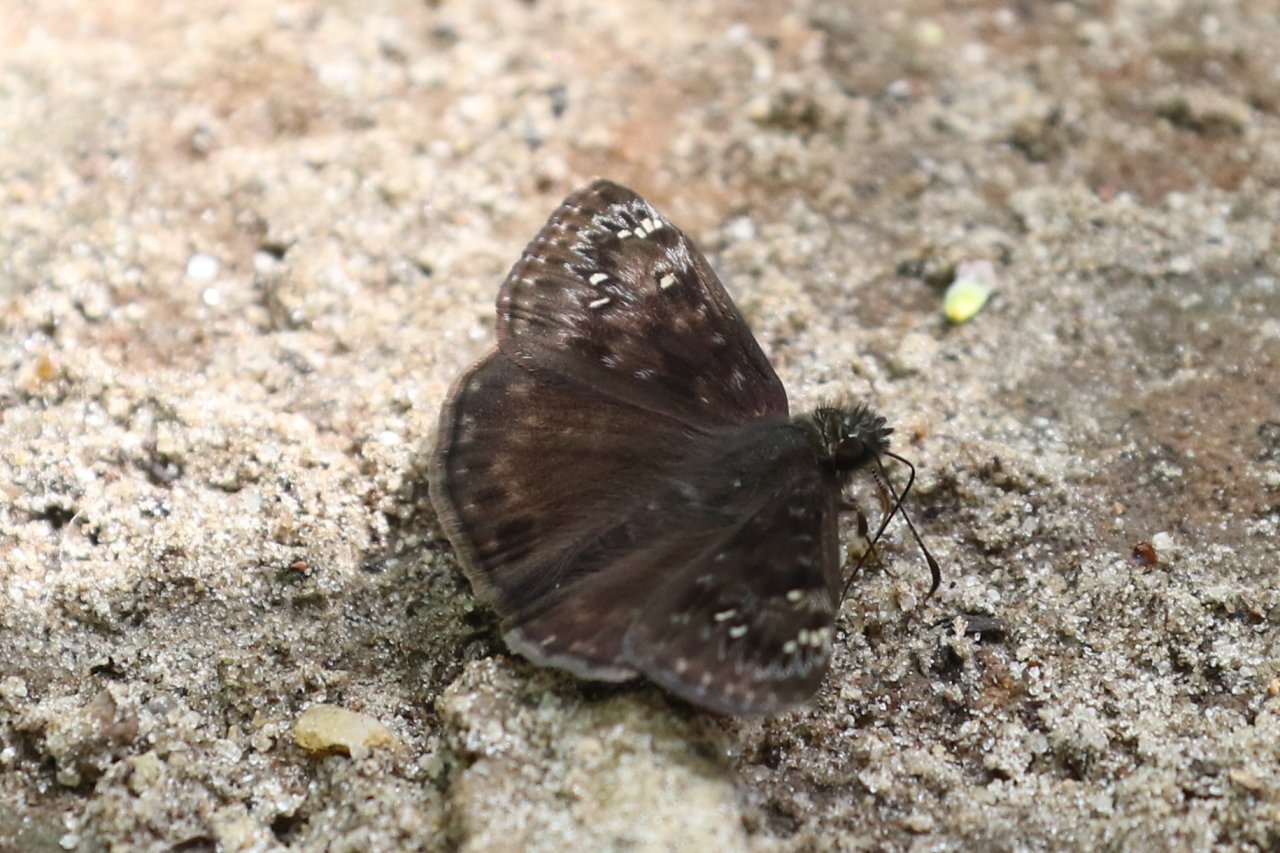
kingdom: Animalia
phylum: Arthropoda
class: Insecta
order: Lepidoptera
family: Hesperiidae
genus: Gesta
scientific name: Gesta
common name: Wild Indigo Duskywing
